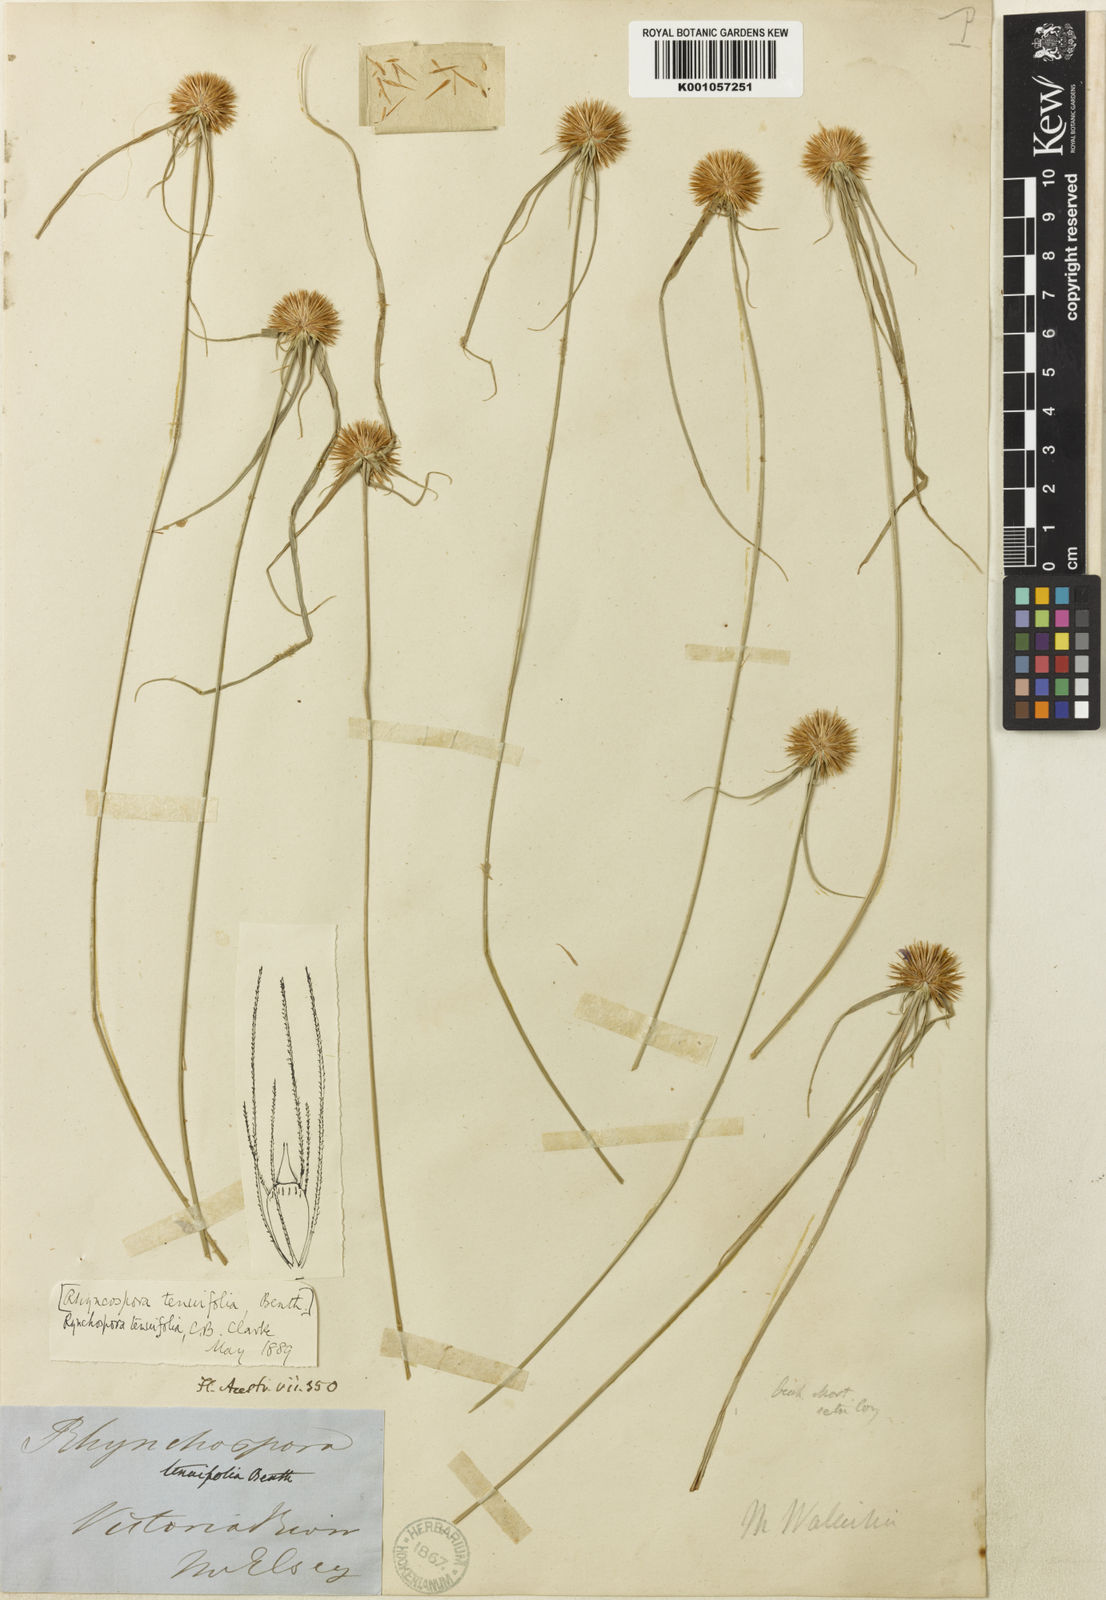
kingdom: Plantae
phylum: Tracheophyta
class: Liliopsida
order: Poales
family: Cyperaceae
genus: Rhynchospora
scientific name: Rhynchospora subtenuifolia
